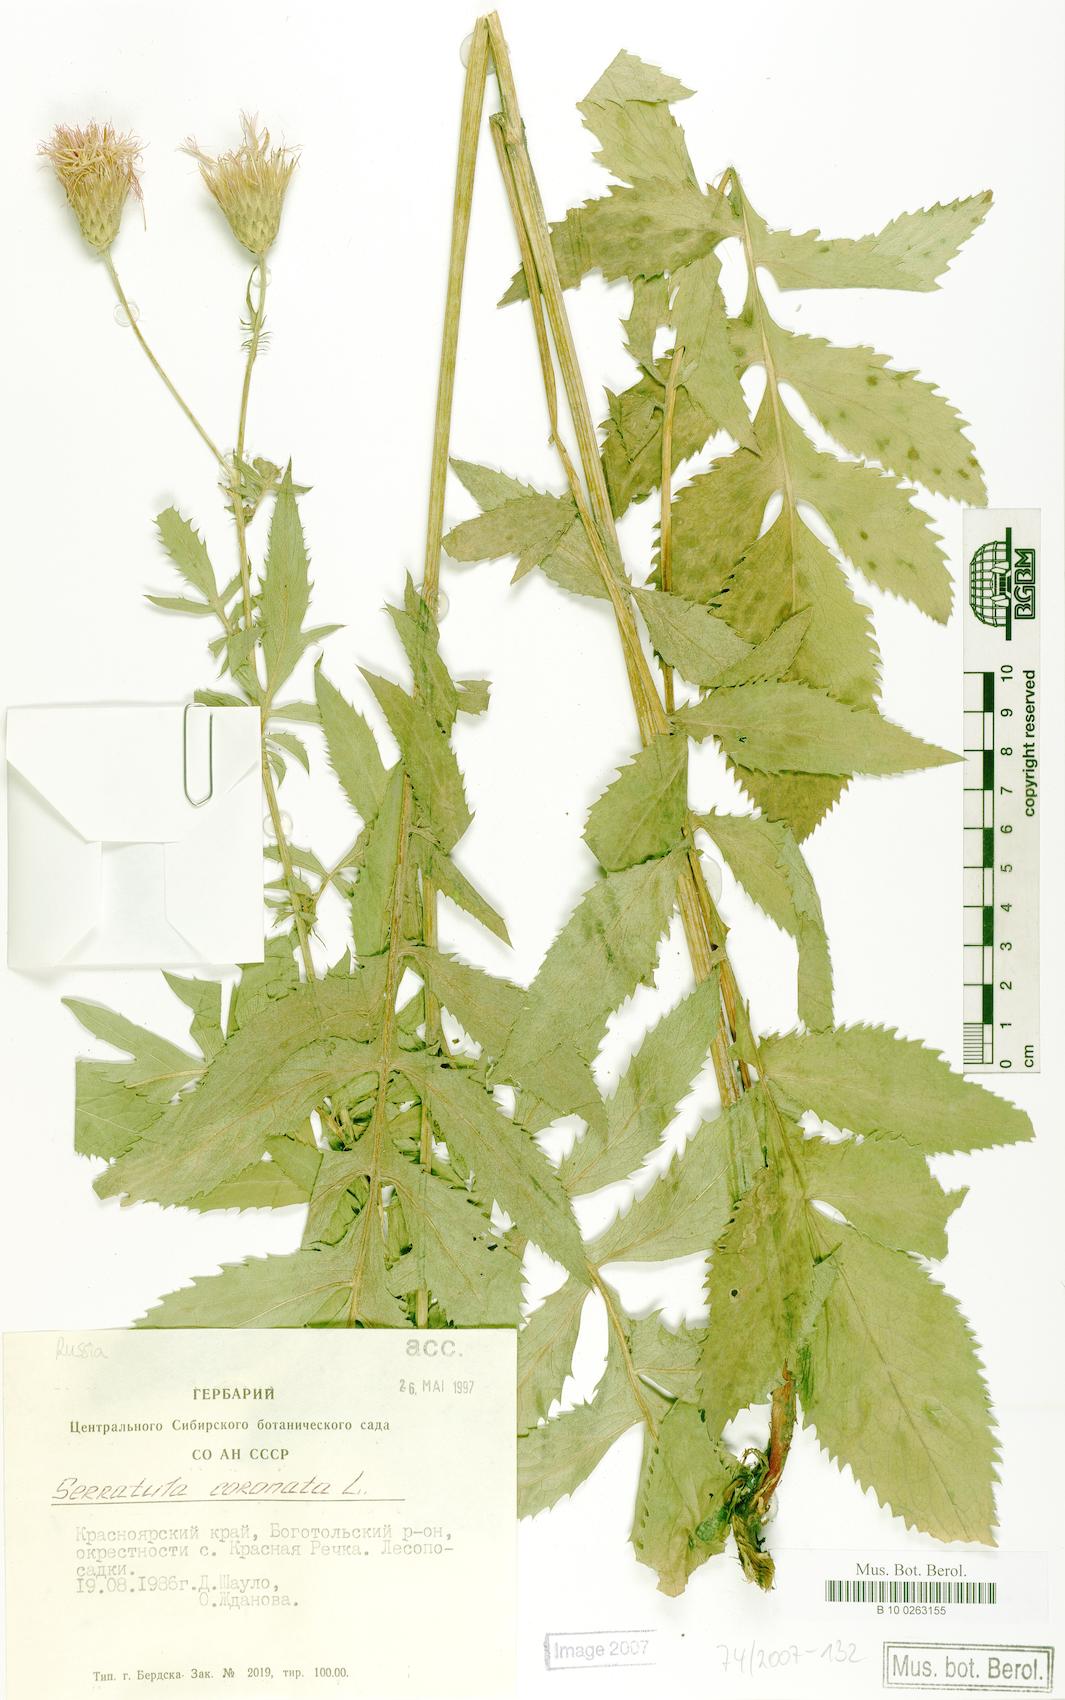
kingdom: Plantae
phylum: Tracheophyta
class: Magnoliopsida
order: Asterales
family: Asteraceae
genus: Serratula
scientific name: Serratula coronata
